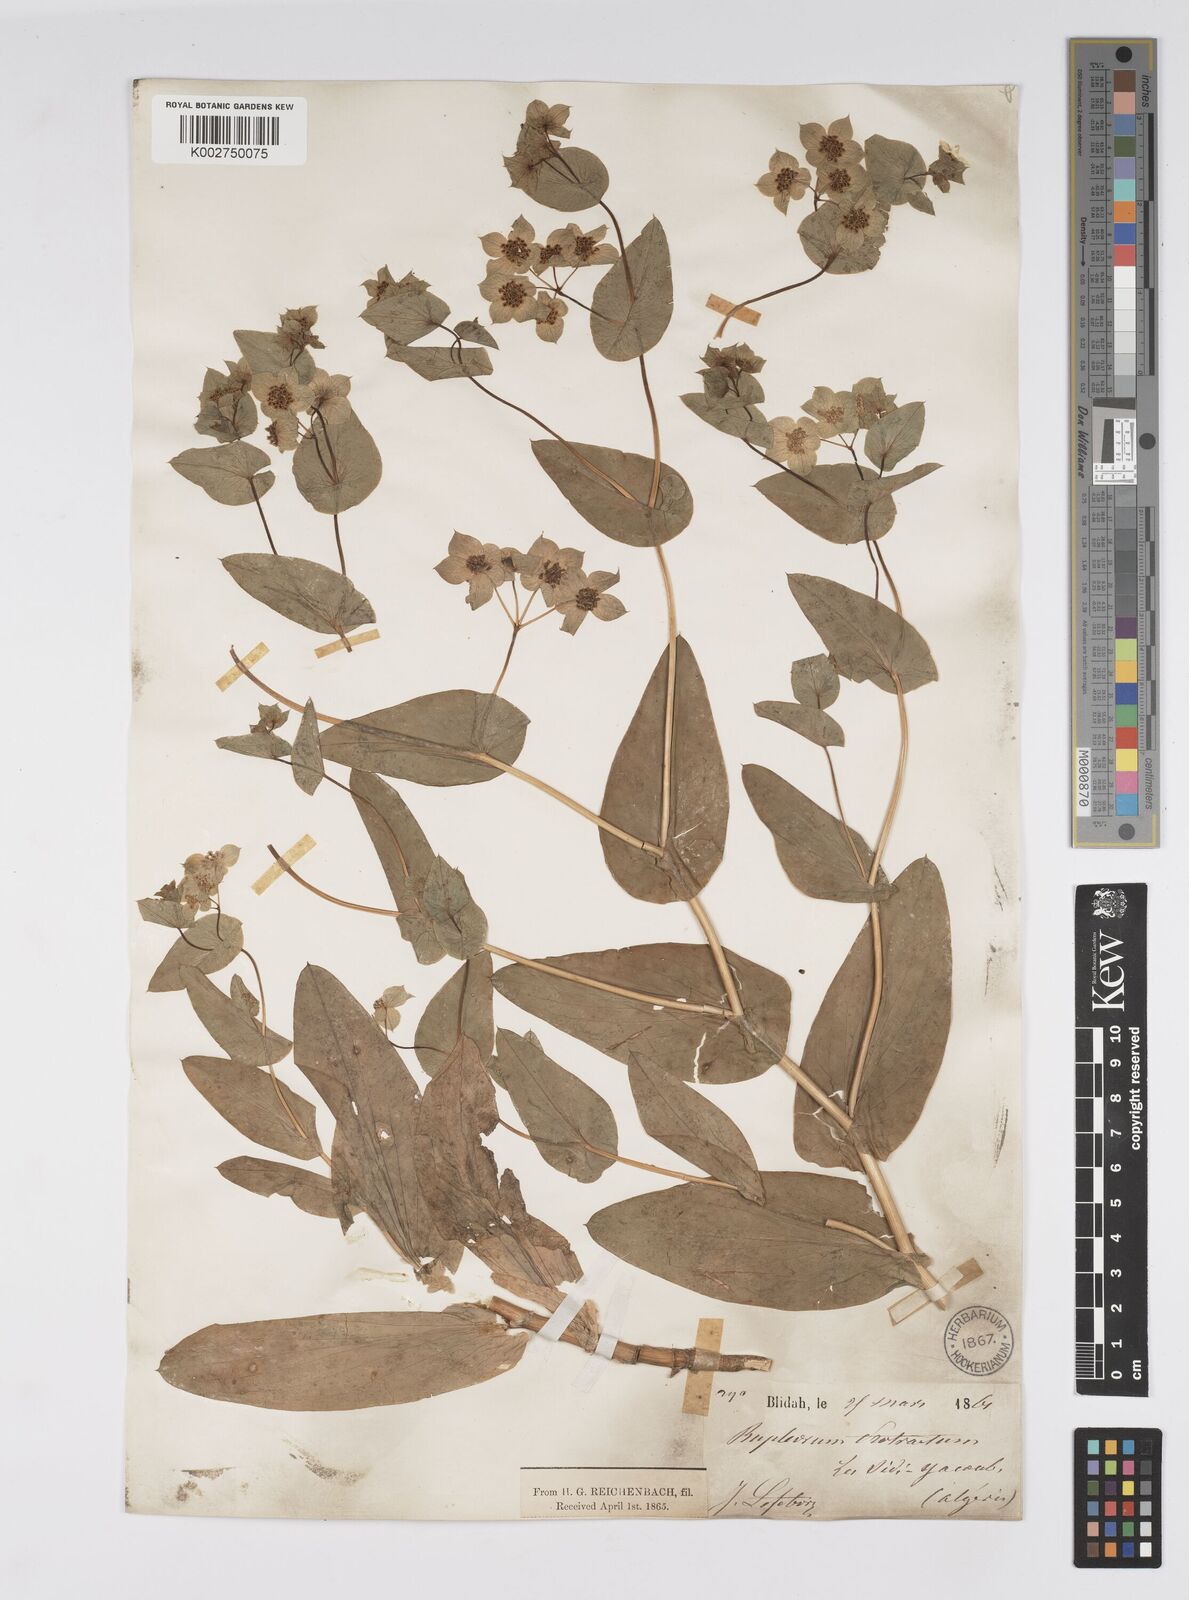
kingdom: Plantae
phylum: Tracheophyta
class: Magnoliopsida
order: Apiales
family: Apiaceae
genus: Bupleurum
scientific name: Bupleurum subovatum
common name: False thorow-wax
